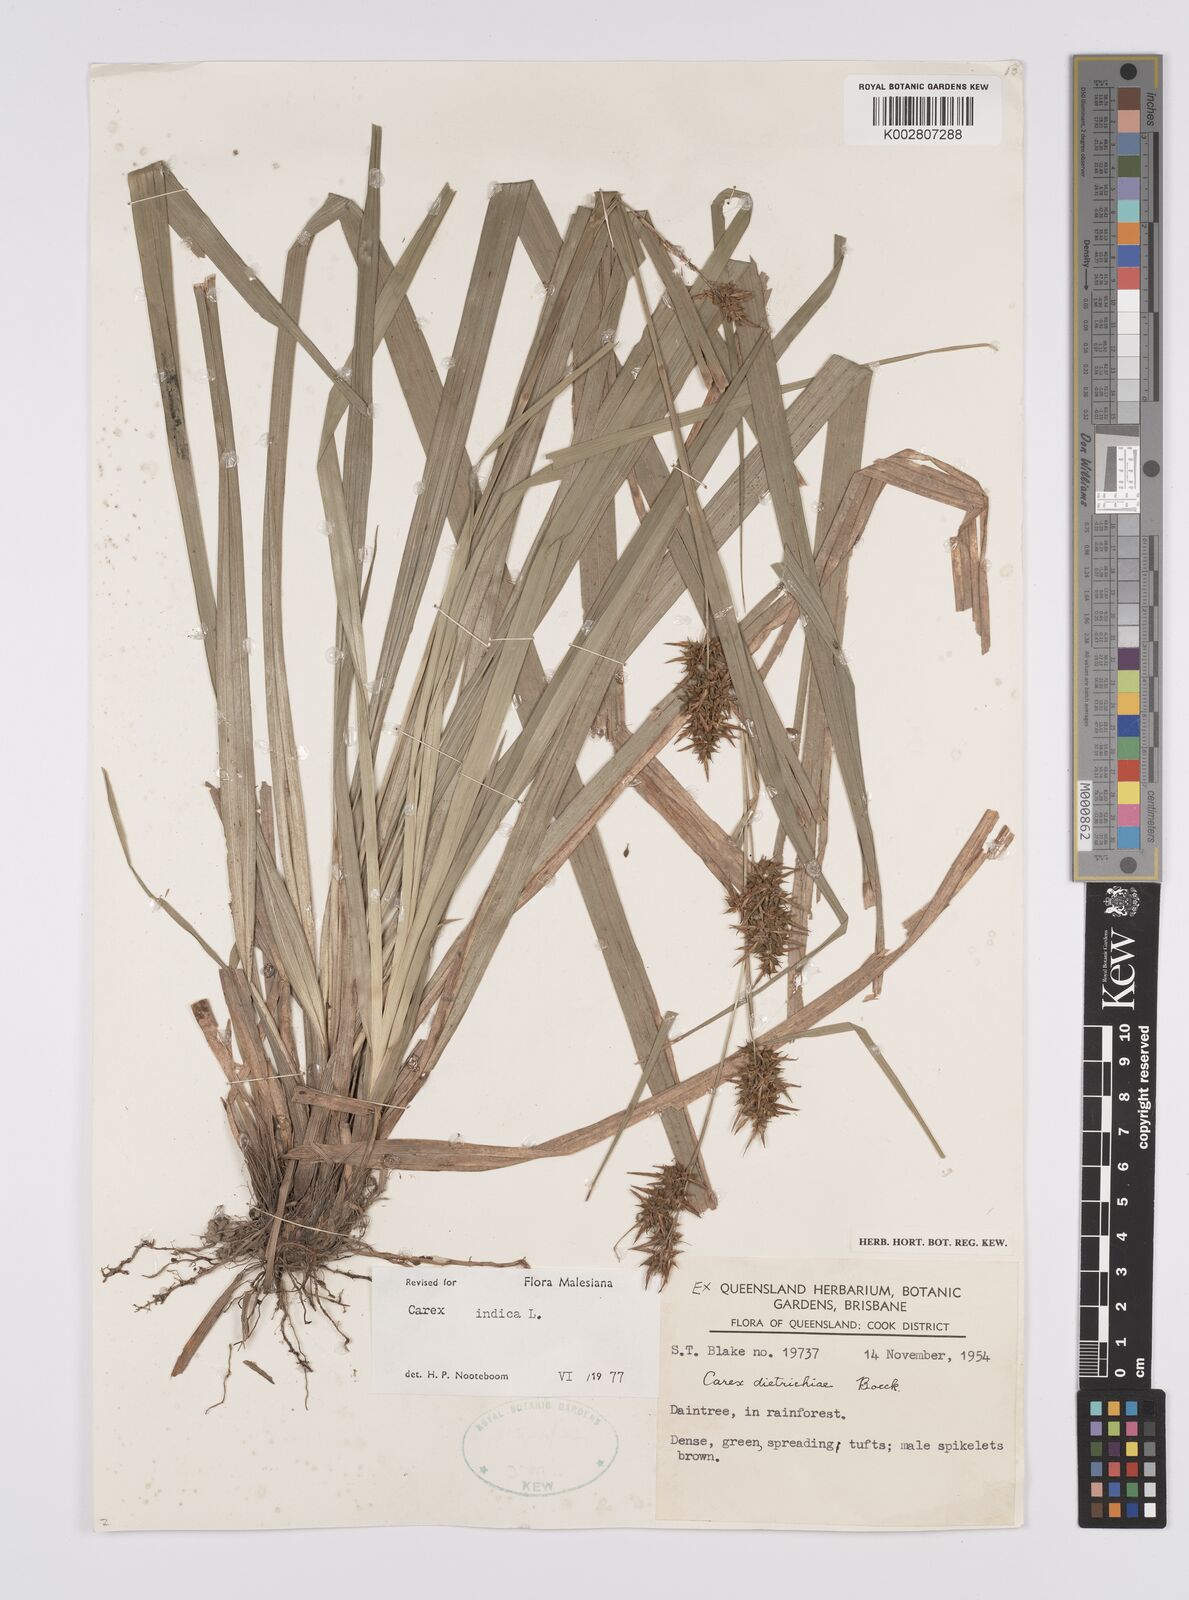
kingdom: Plantae
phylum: Tracheophyta
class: Liliopsida
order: Poales
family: Cyperaceae
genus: Carex
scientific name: Carex indica
